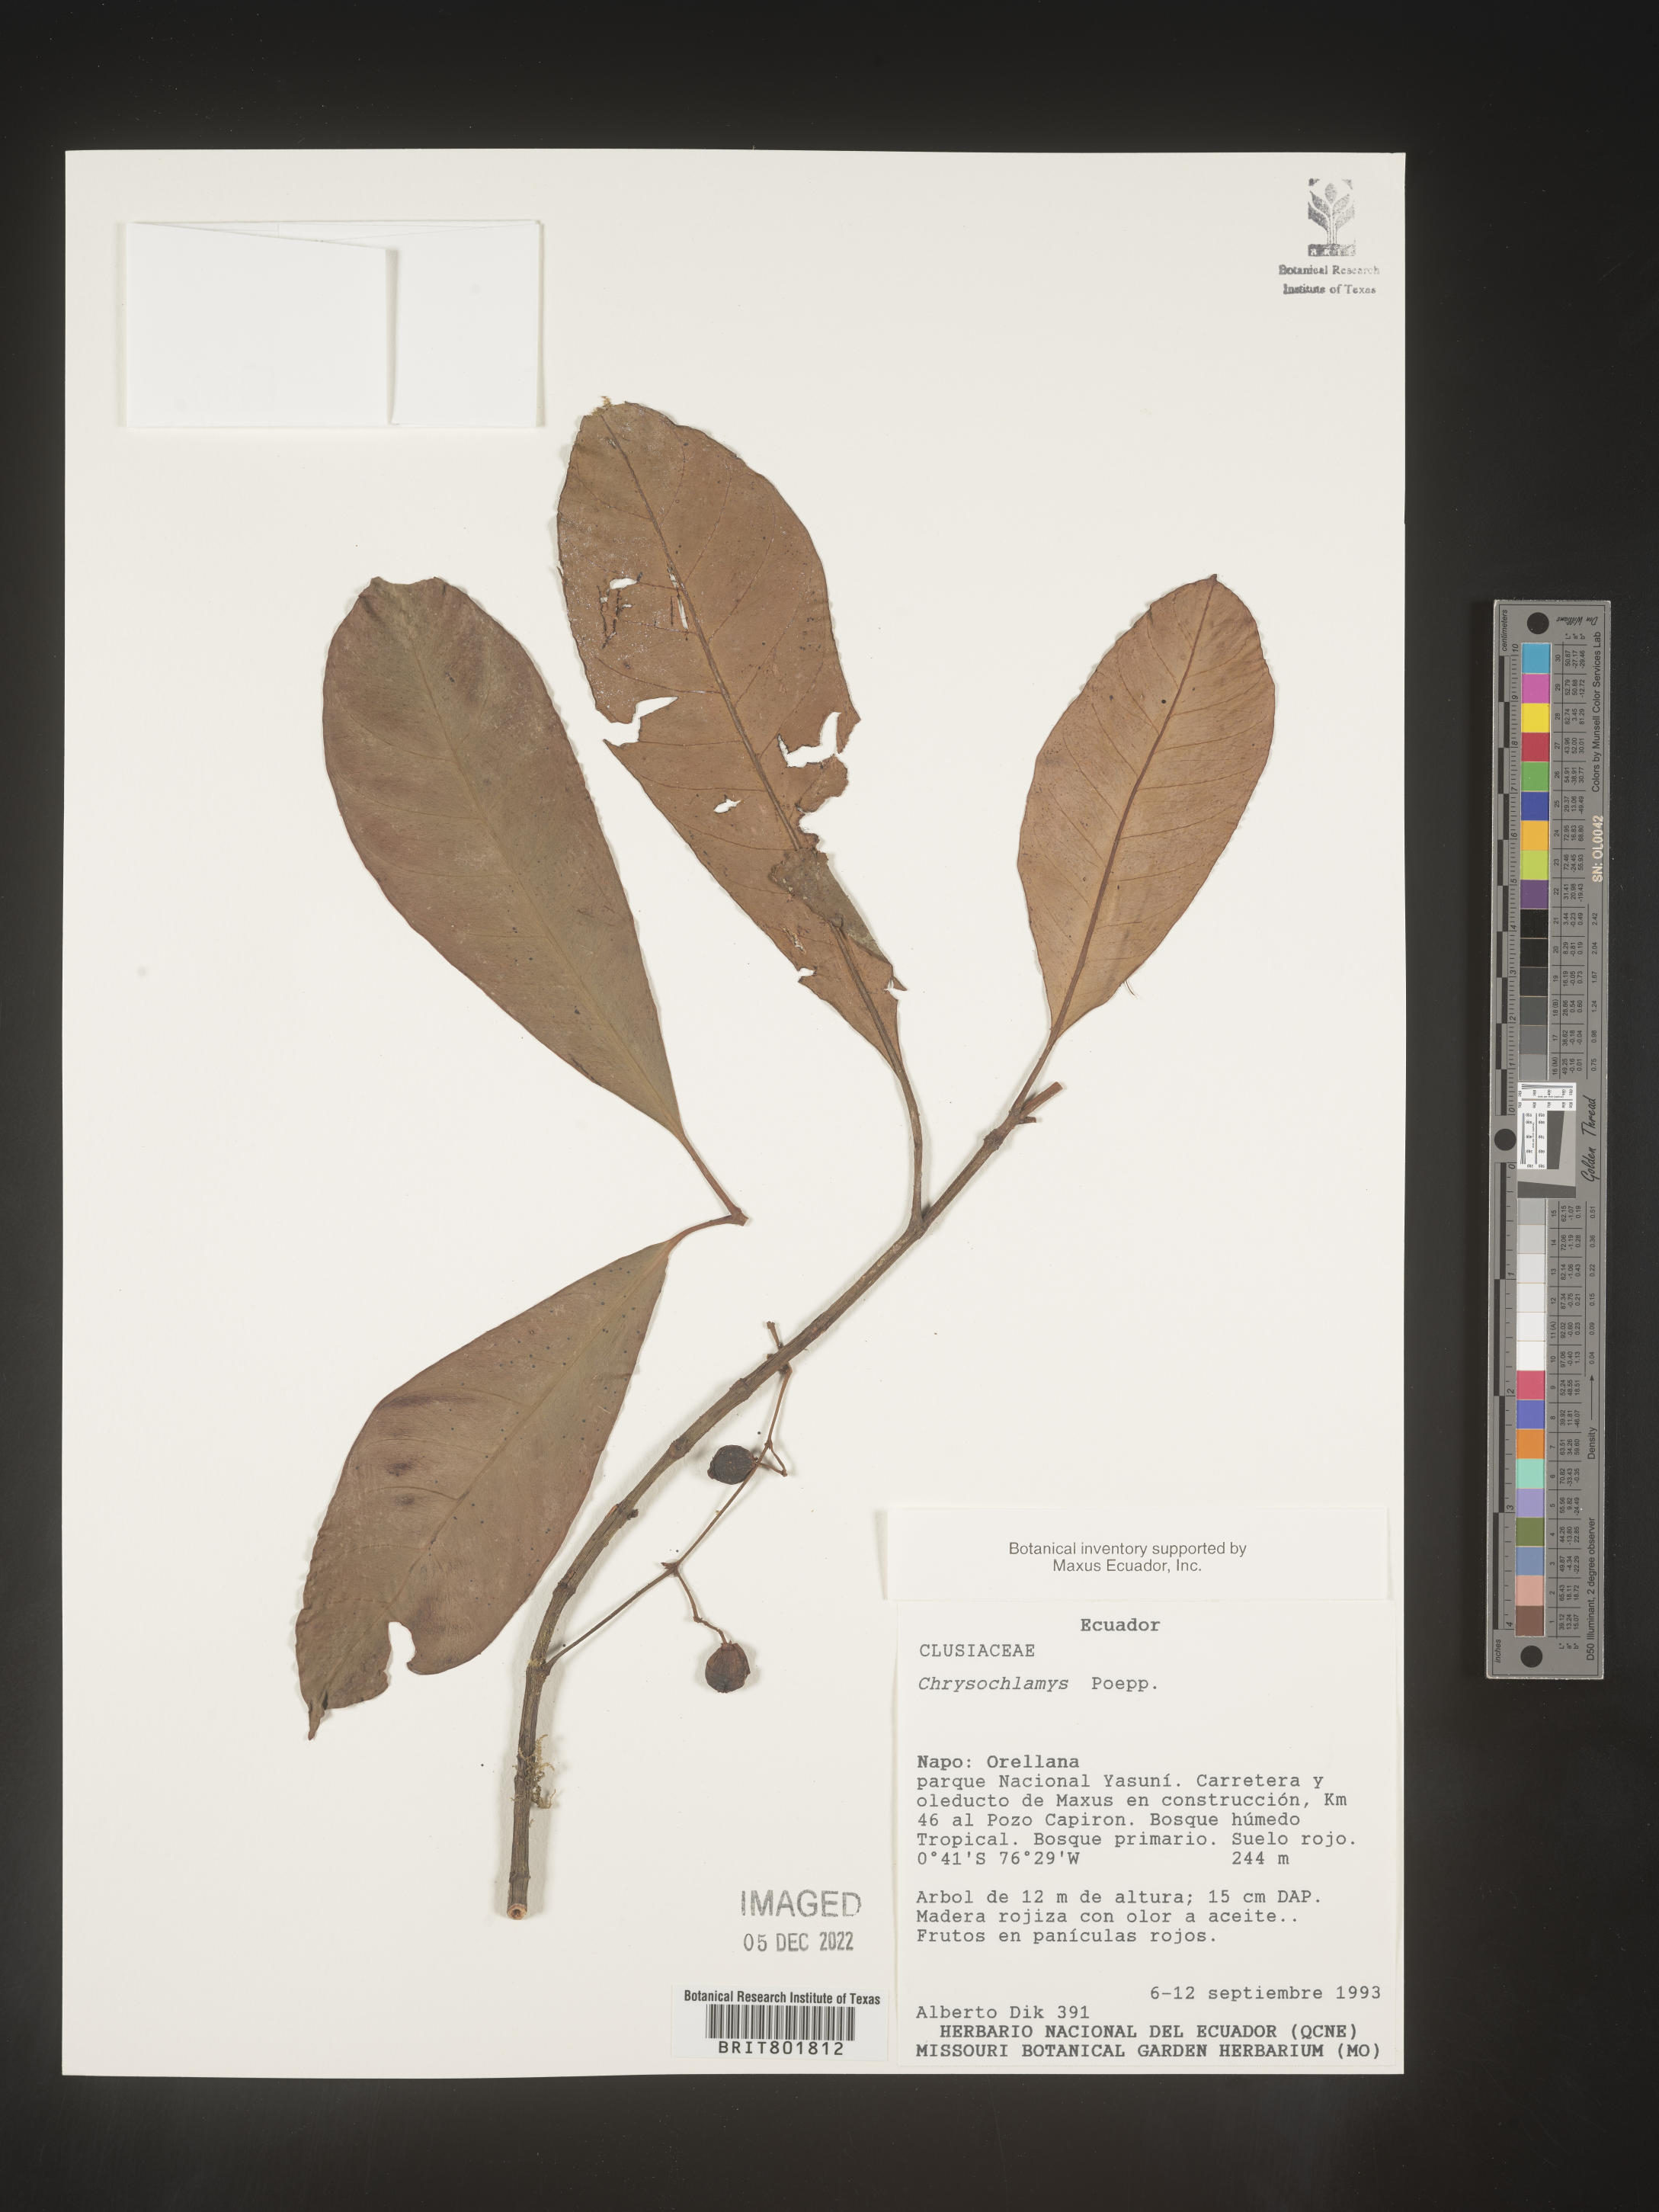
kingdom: Plantae
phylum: Tracheophyta
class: Magnoliopsida
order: Malpighiales
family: Clusiaceae
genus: Chrysochlamys
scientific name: Chrysochlamys
